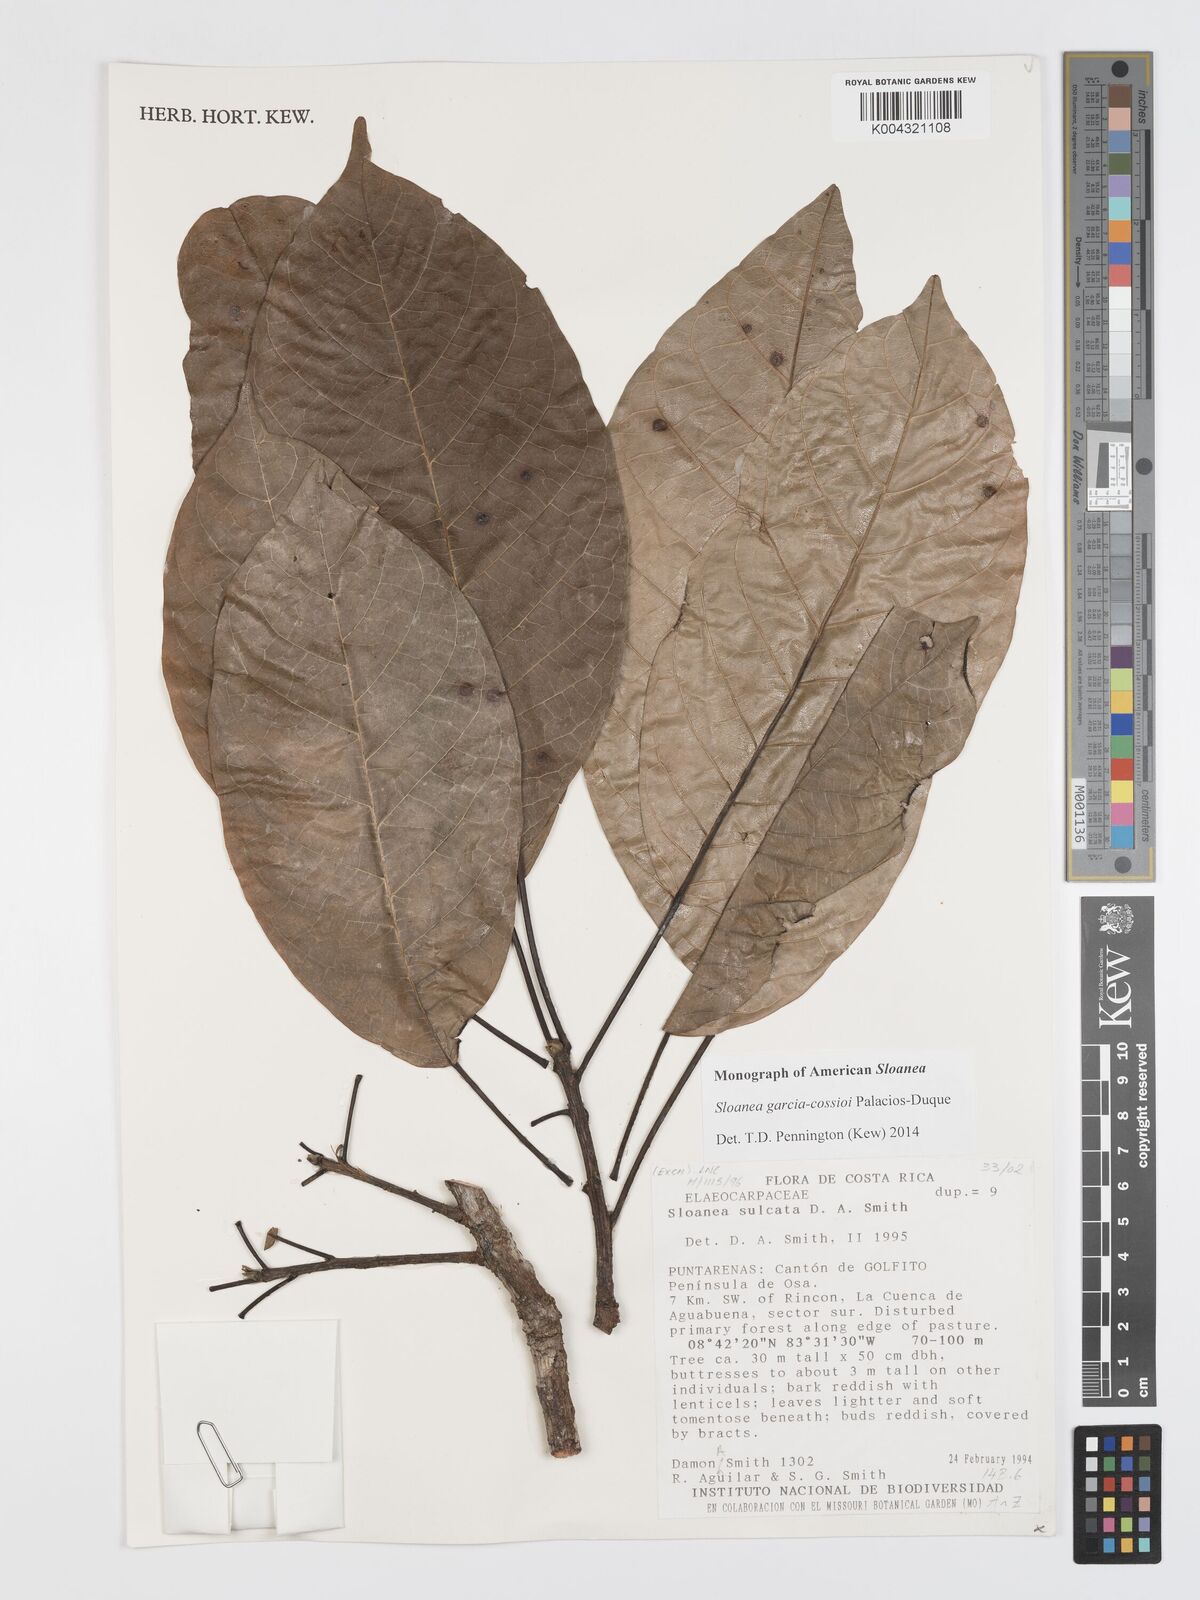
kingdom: Plantae
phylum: Tracheophyta
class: Magnoliopsida
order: Oxalidales
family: Elaeocarpaceae
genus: Sloanea
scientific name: Sloanea garcia-cossioi
